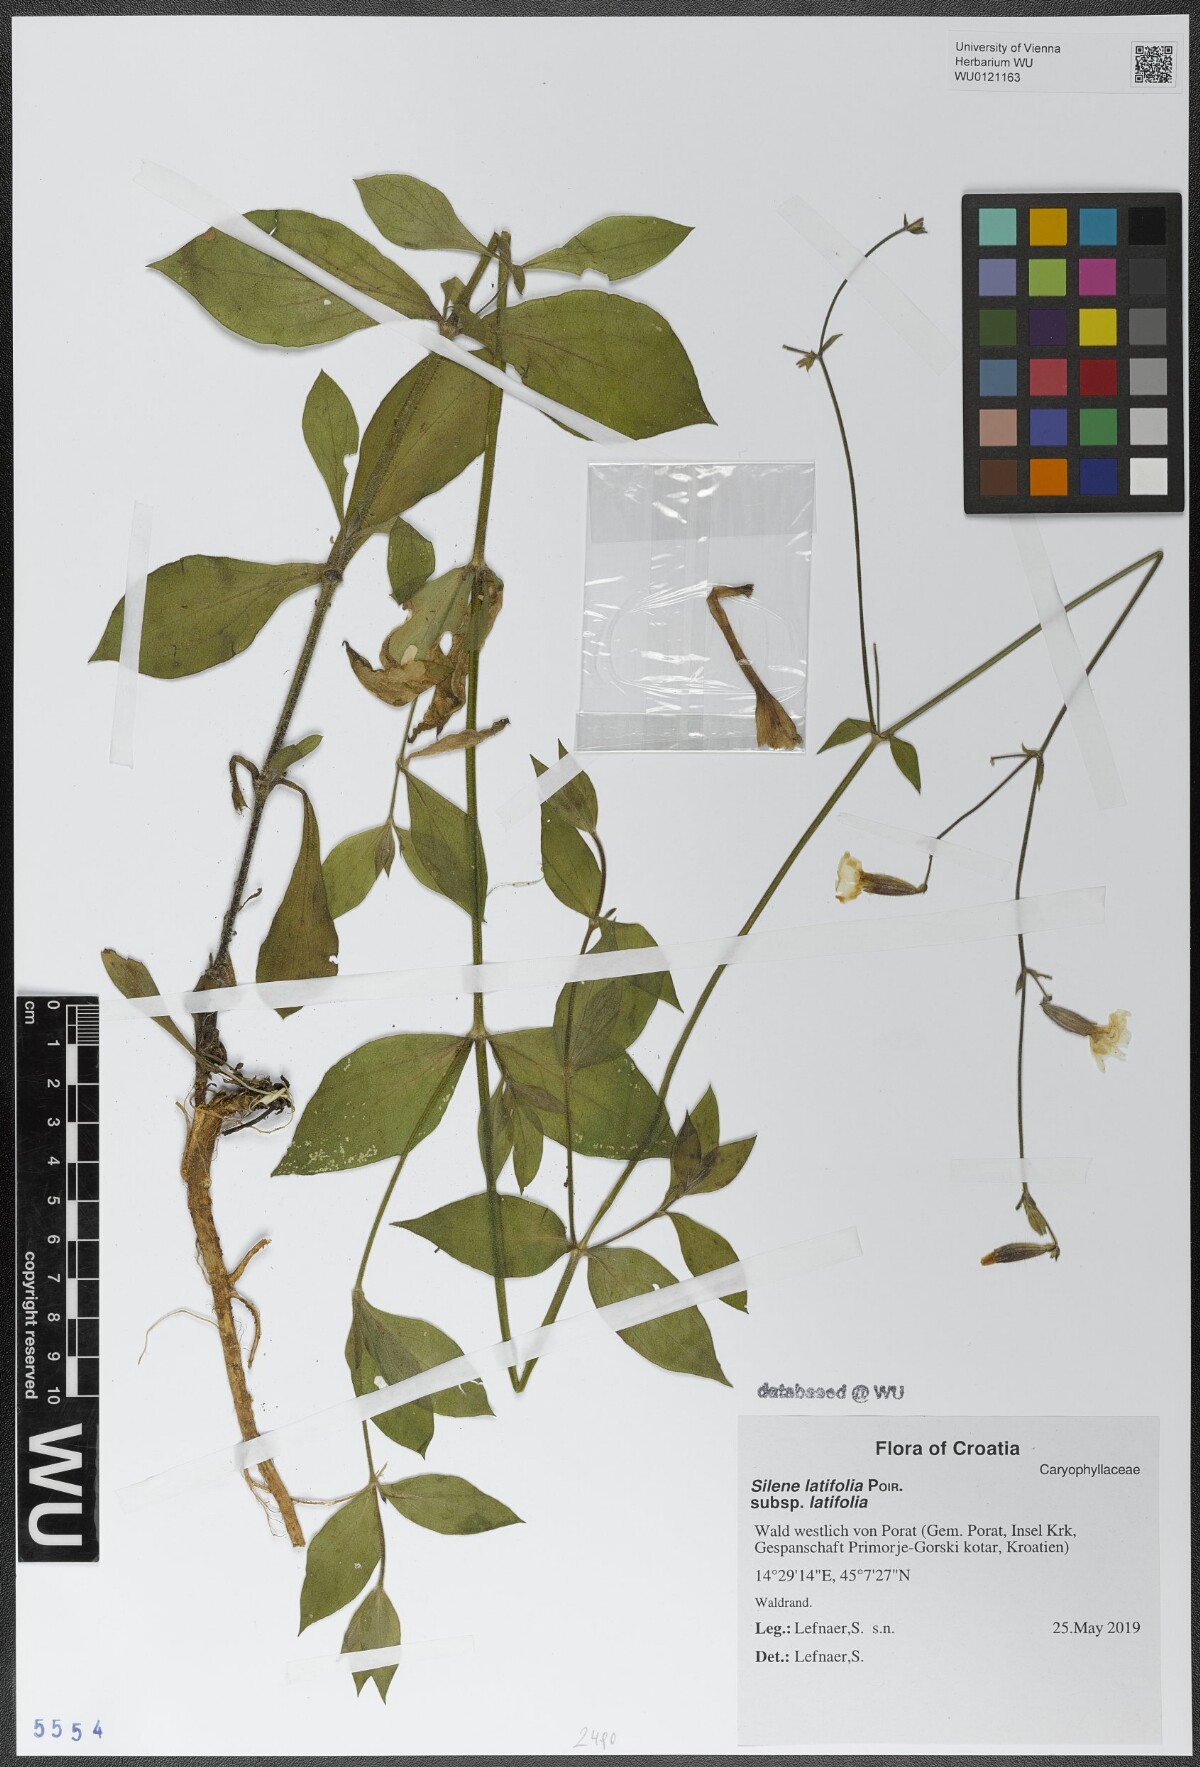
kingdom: Plantae
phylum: Tracheophyta
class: Magnoliopsida
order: Caryophyllales
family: Caryophyllaceae
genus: Silene
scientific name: Silene latifolia
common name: White campion
